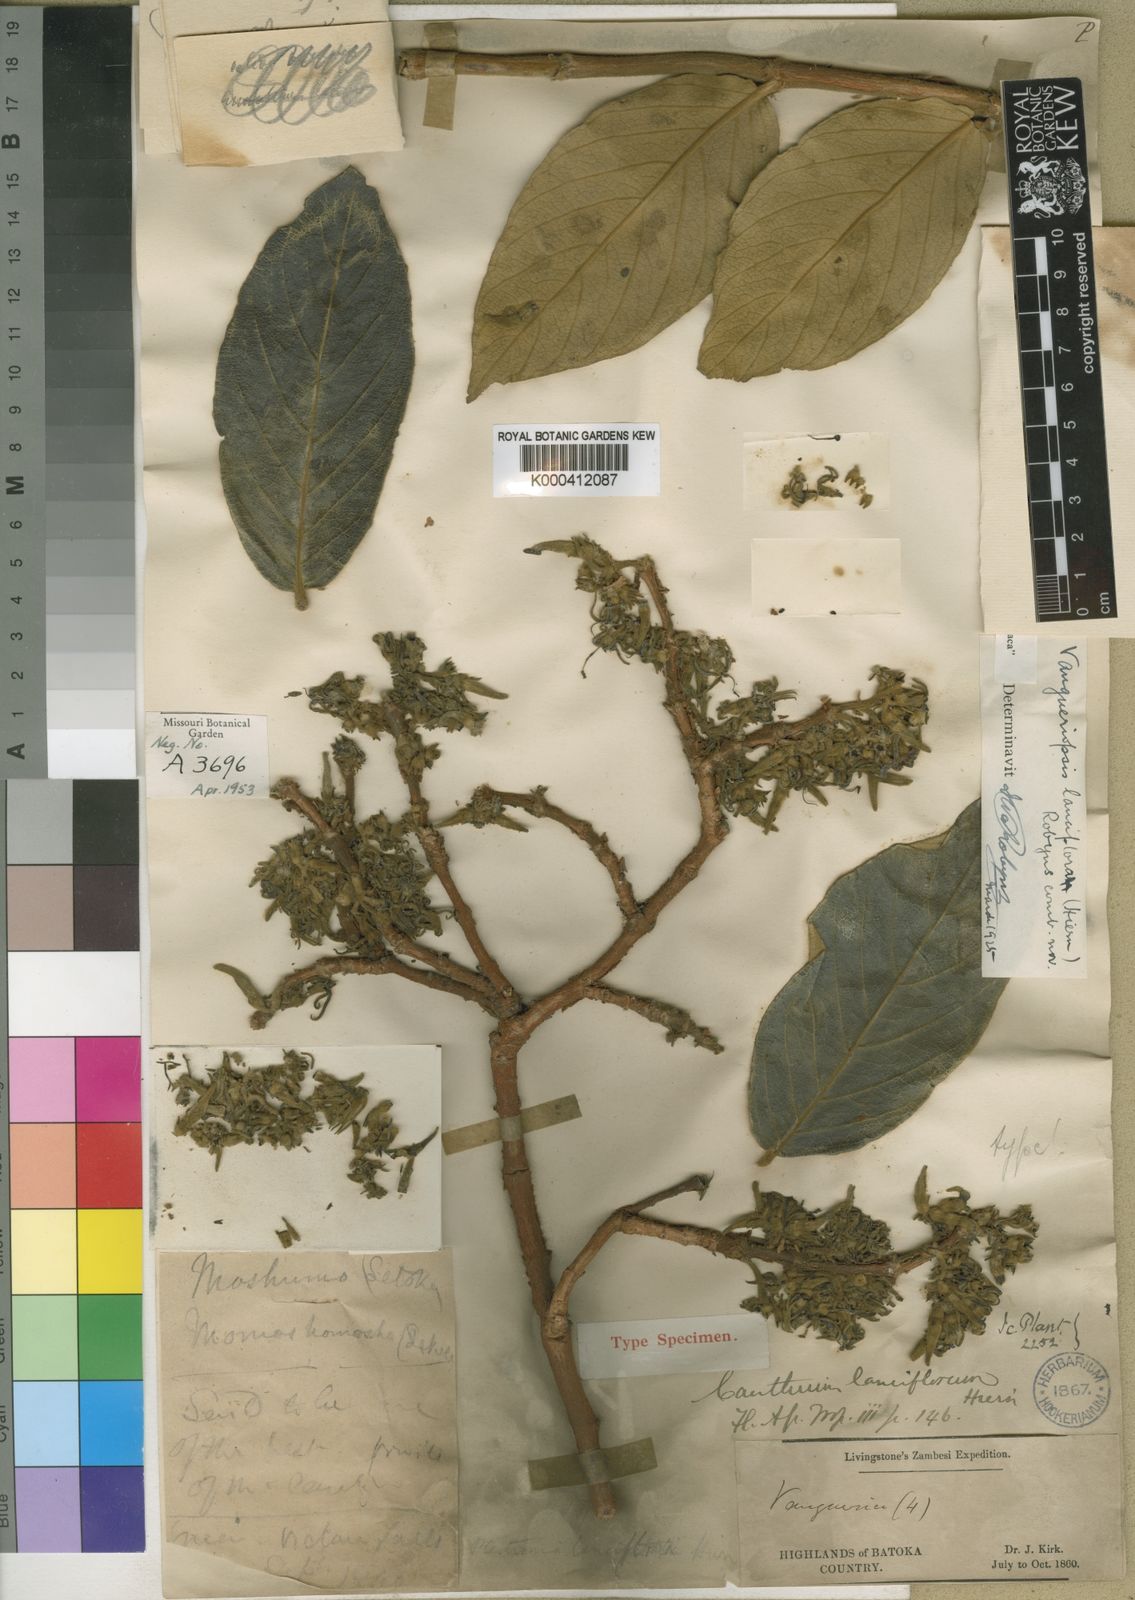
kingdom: Plantae
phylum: Tracheophyta
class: Magnoliopsida
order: Gentianales
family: Rubiaceae
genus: Vangueriopsis
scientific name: Vangueriopsis lanciflora
